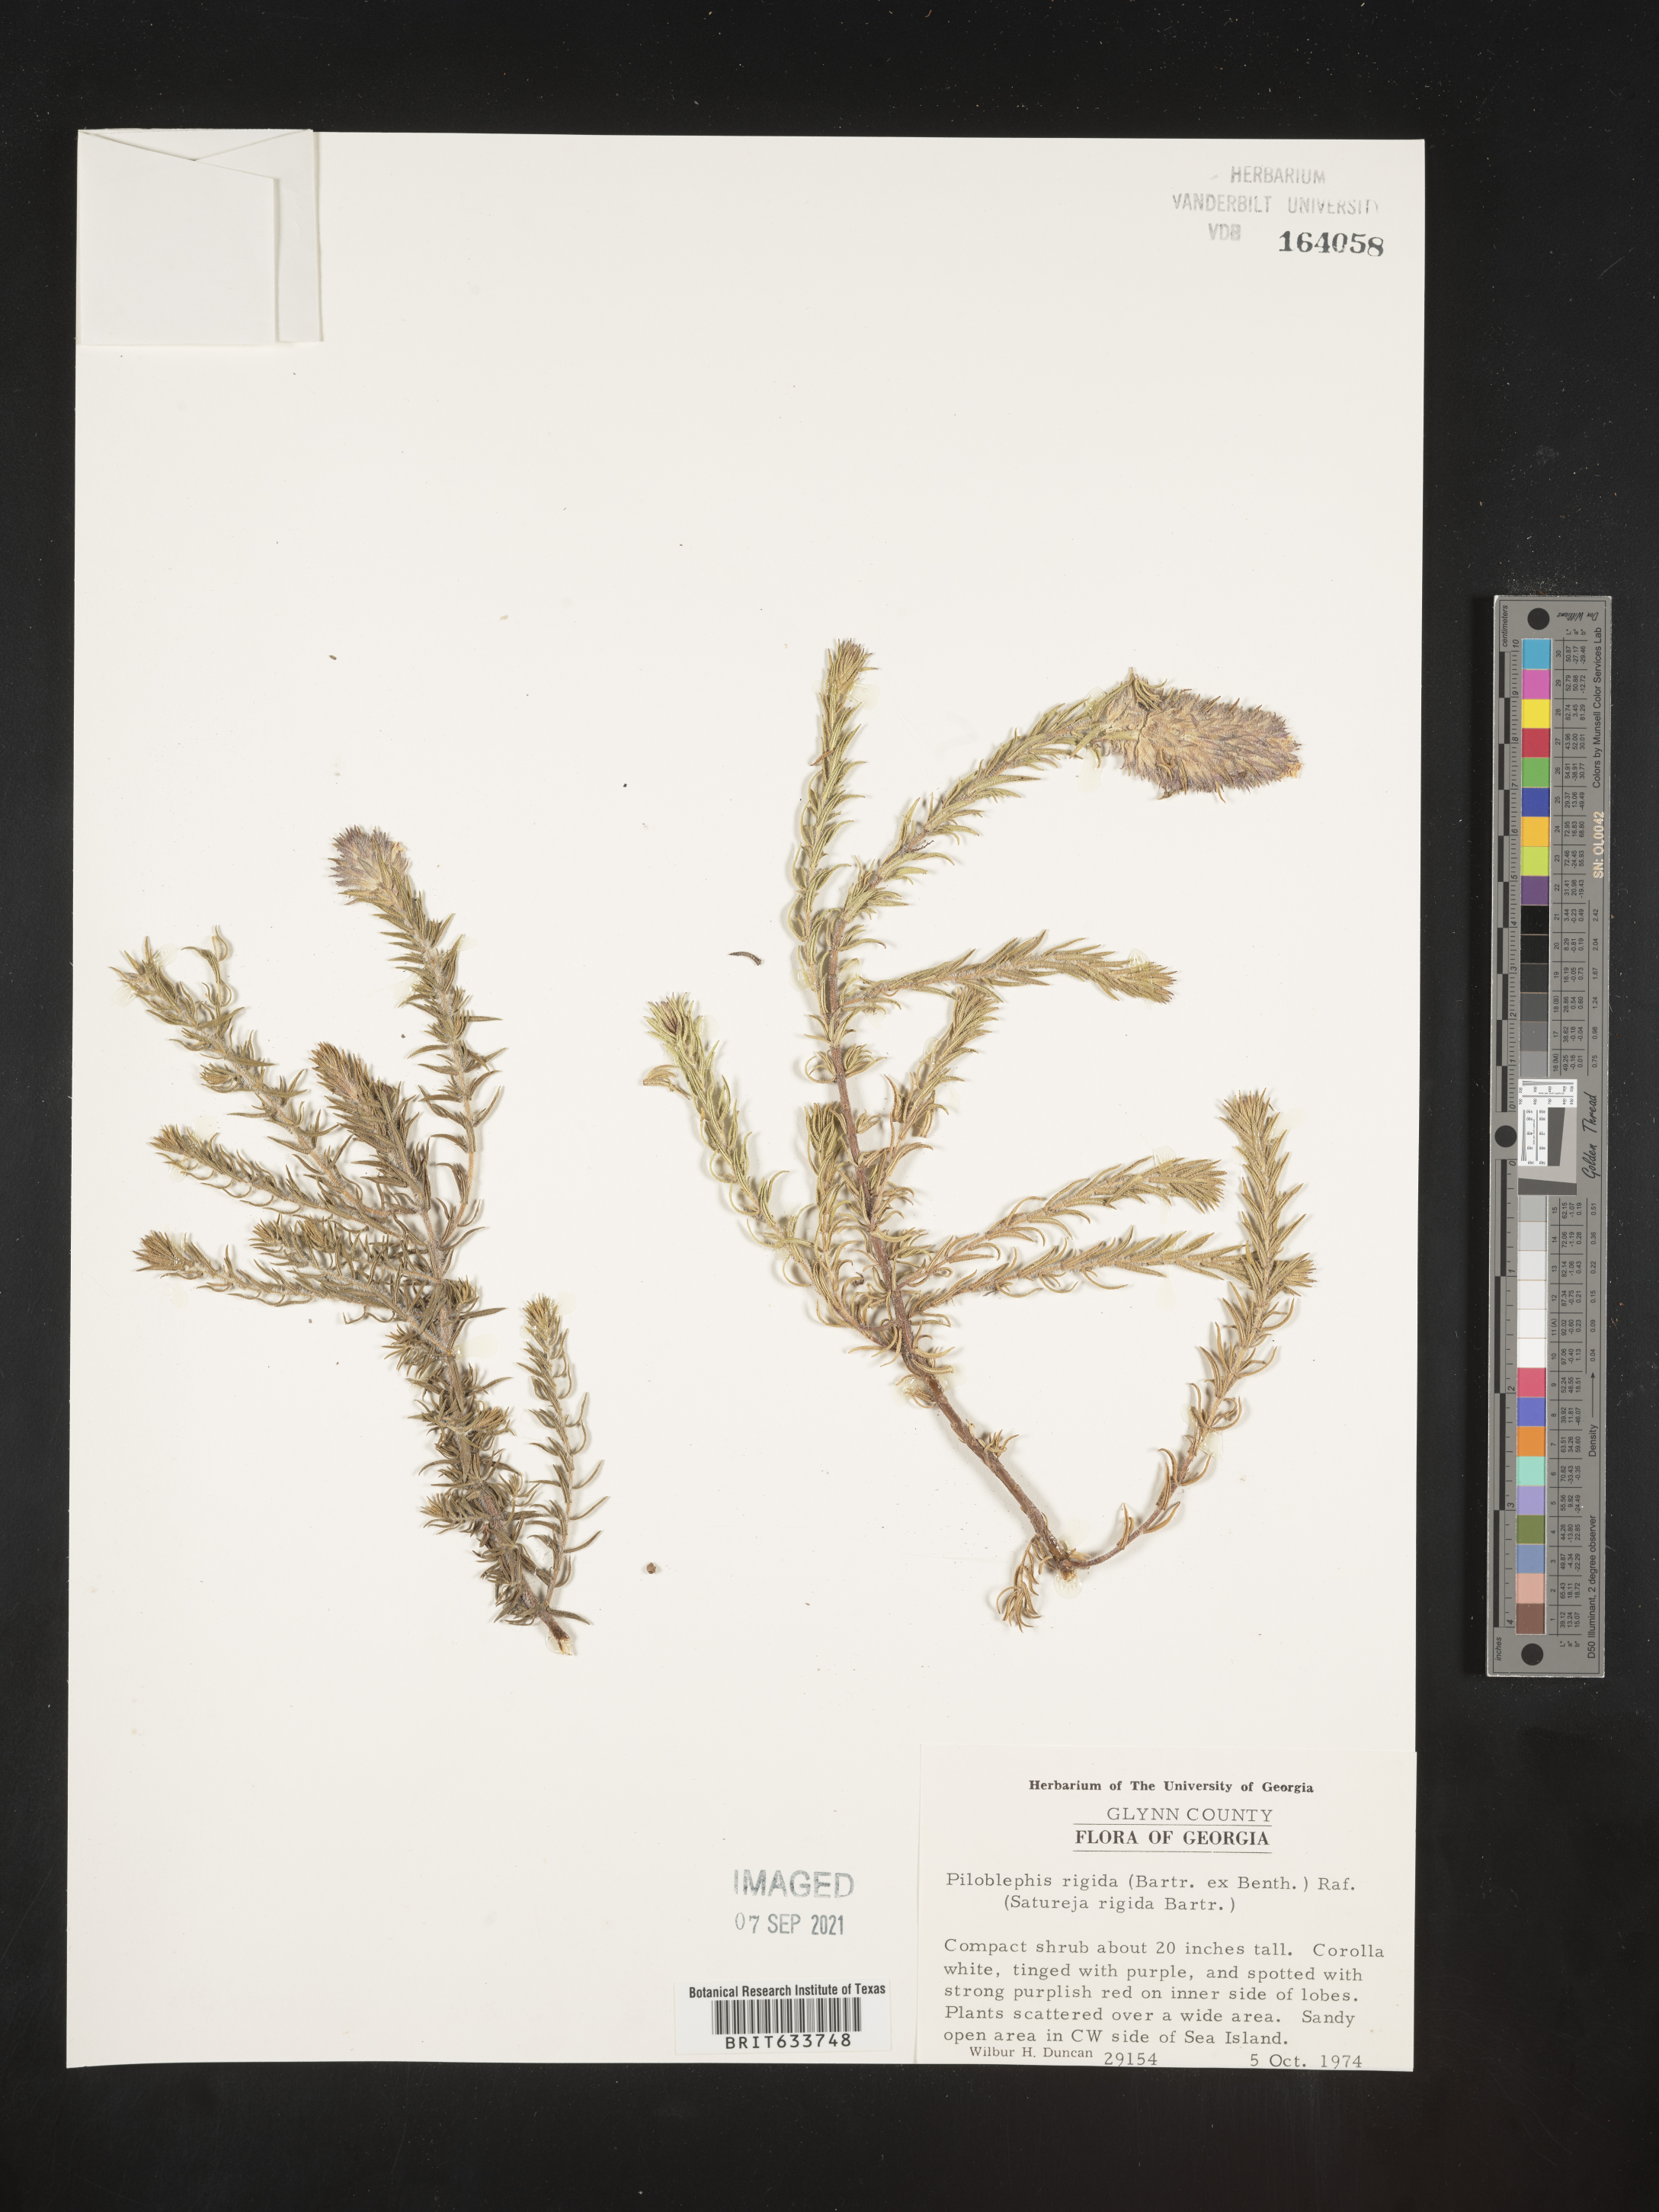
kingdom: Plantae
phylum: Tracheophyta
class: Magnoliopsida
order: Lamiales
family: Lamiaceae
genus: Piloblephis
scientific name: Piloblephis rigida
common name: Wild pennyroyal
